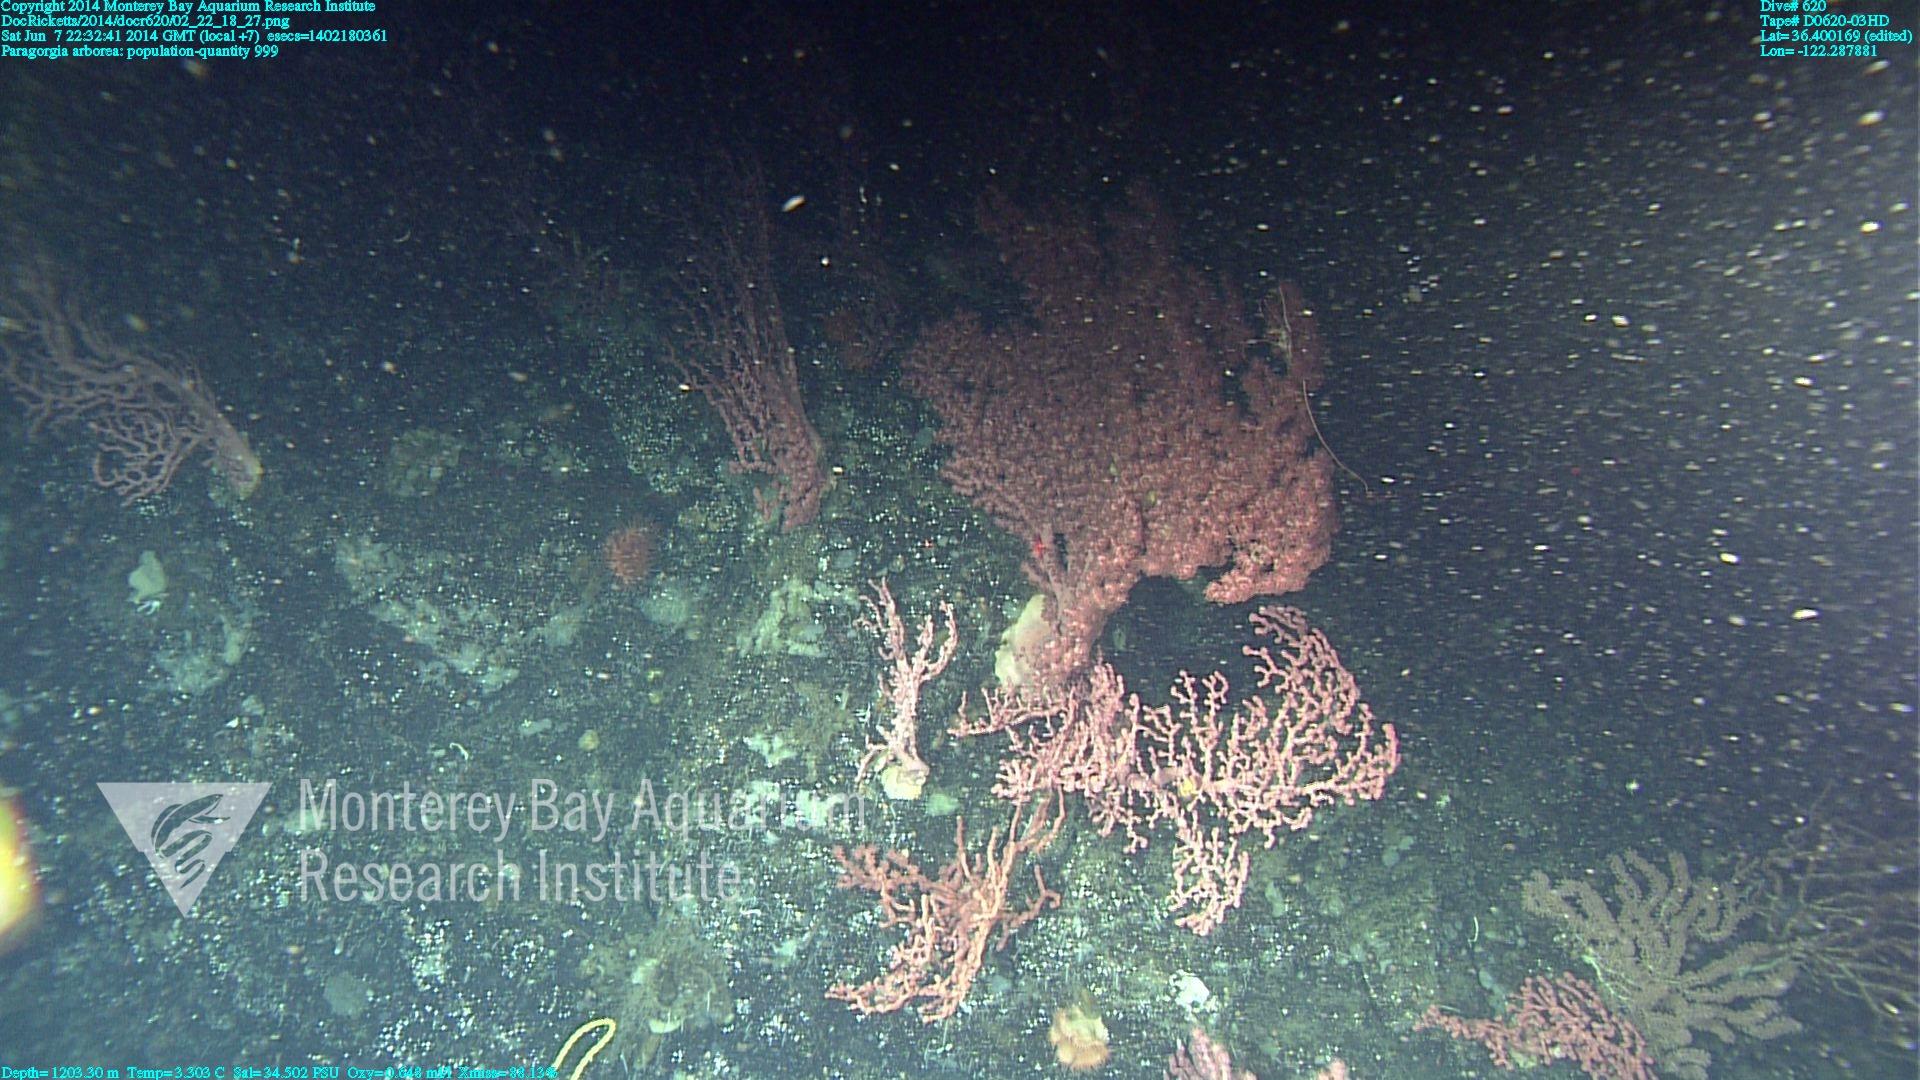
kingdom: Animalia
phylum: Cnidaria
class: Anthozoa
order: Scleralcyonacea
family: Coralliidae
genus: Paragorgia
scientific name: Paragorgia arborea
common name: Bubble gum coral
